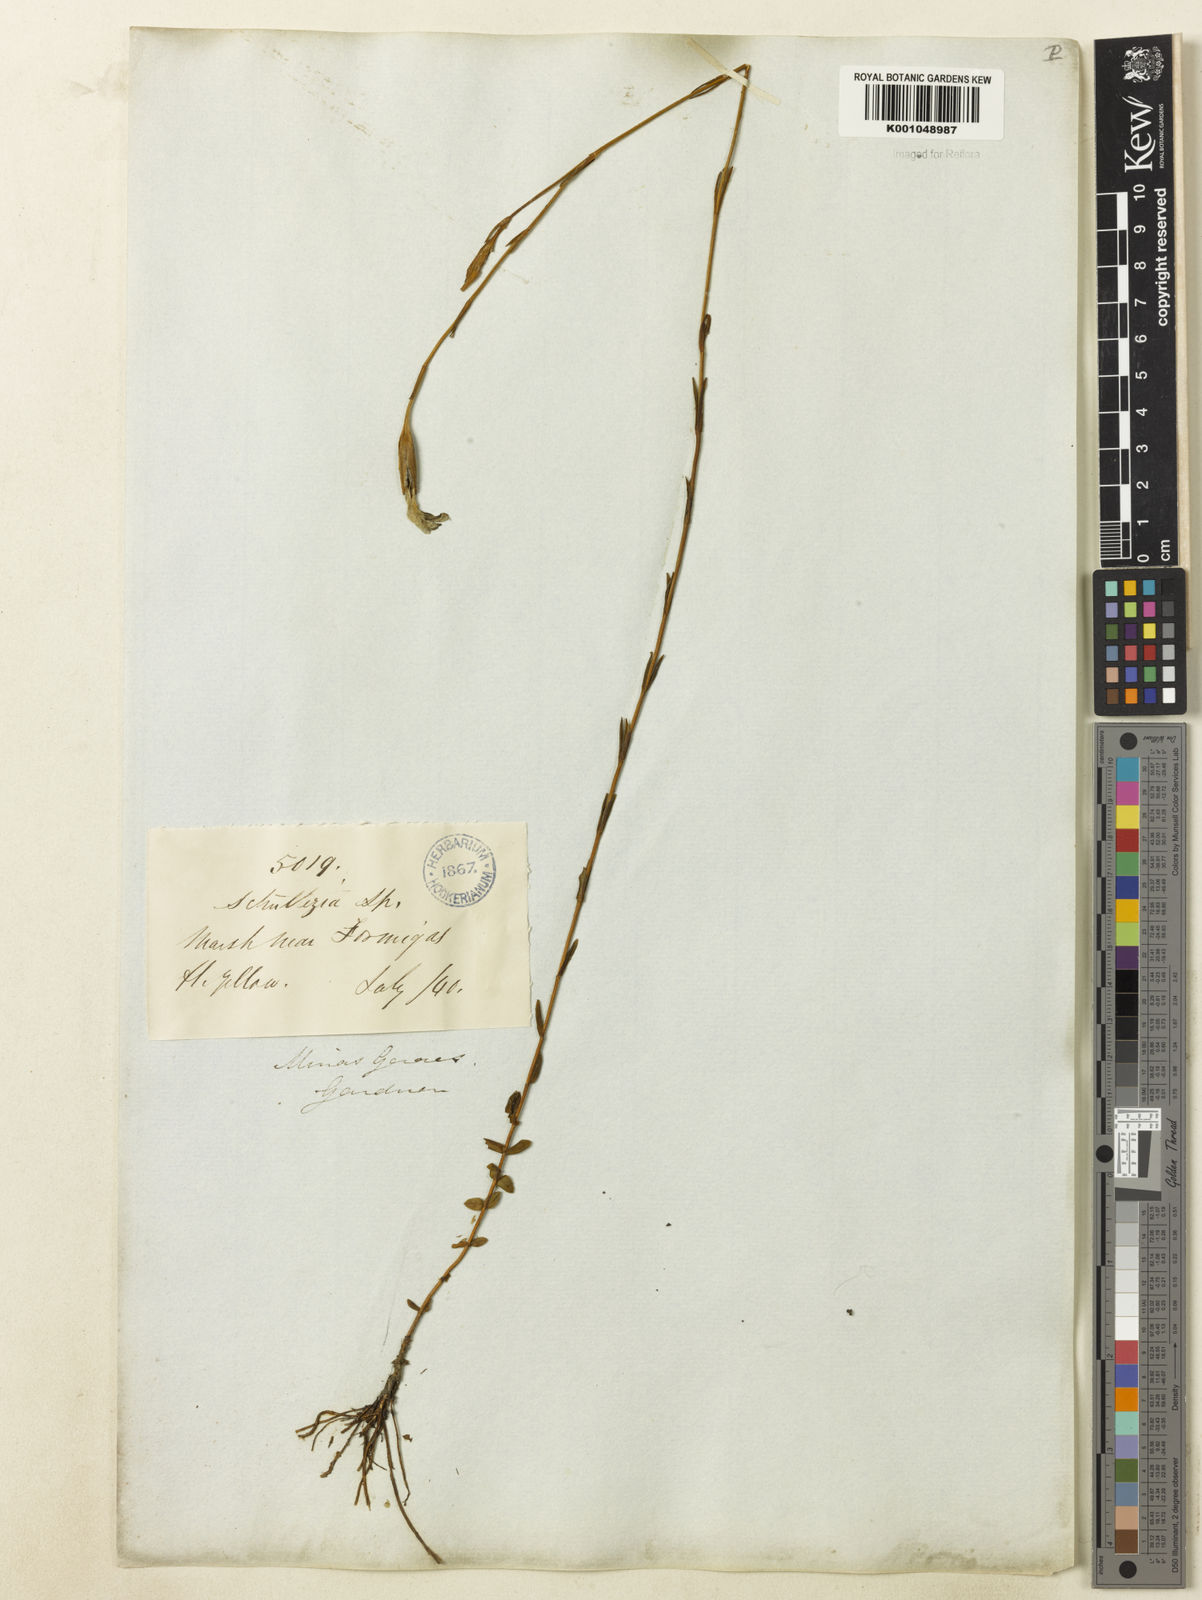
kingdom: Plantae
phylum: Tracheophyta
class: Magnoliopsida
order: Gentianales
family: Gentianaceae
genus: Schultesia
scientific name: Schultesia aptera
